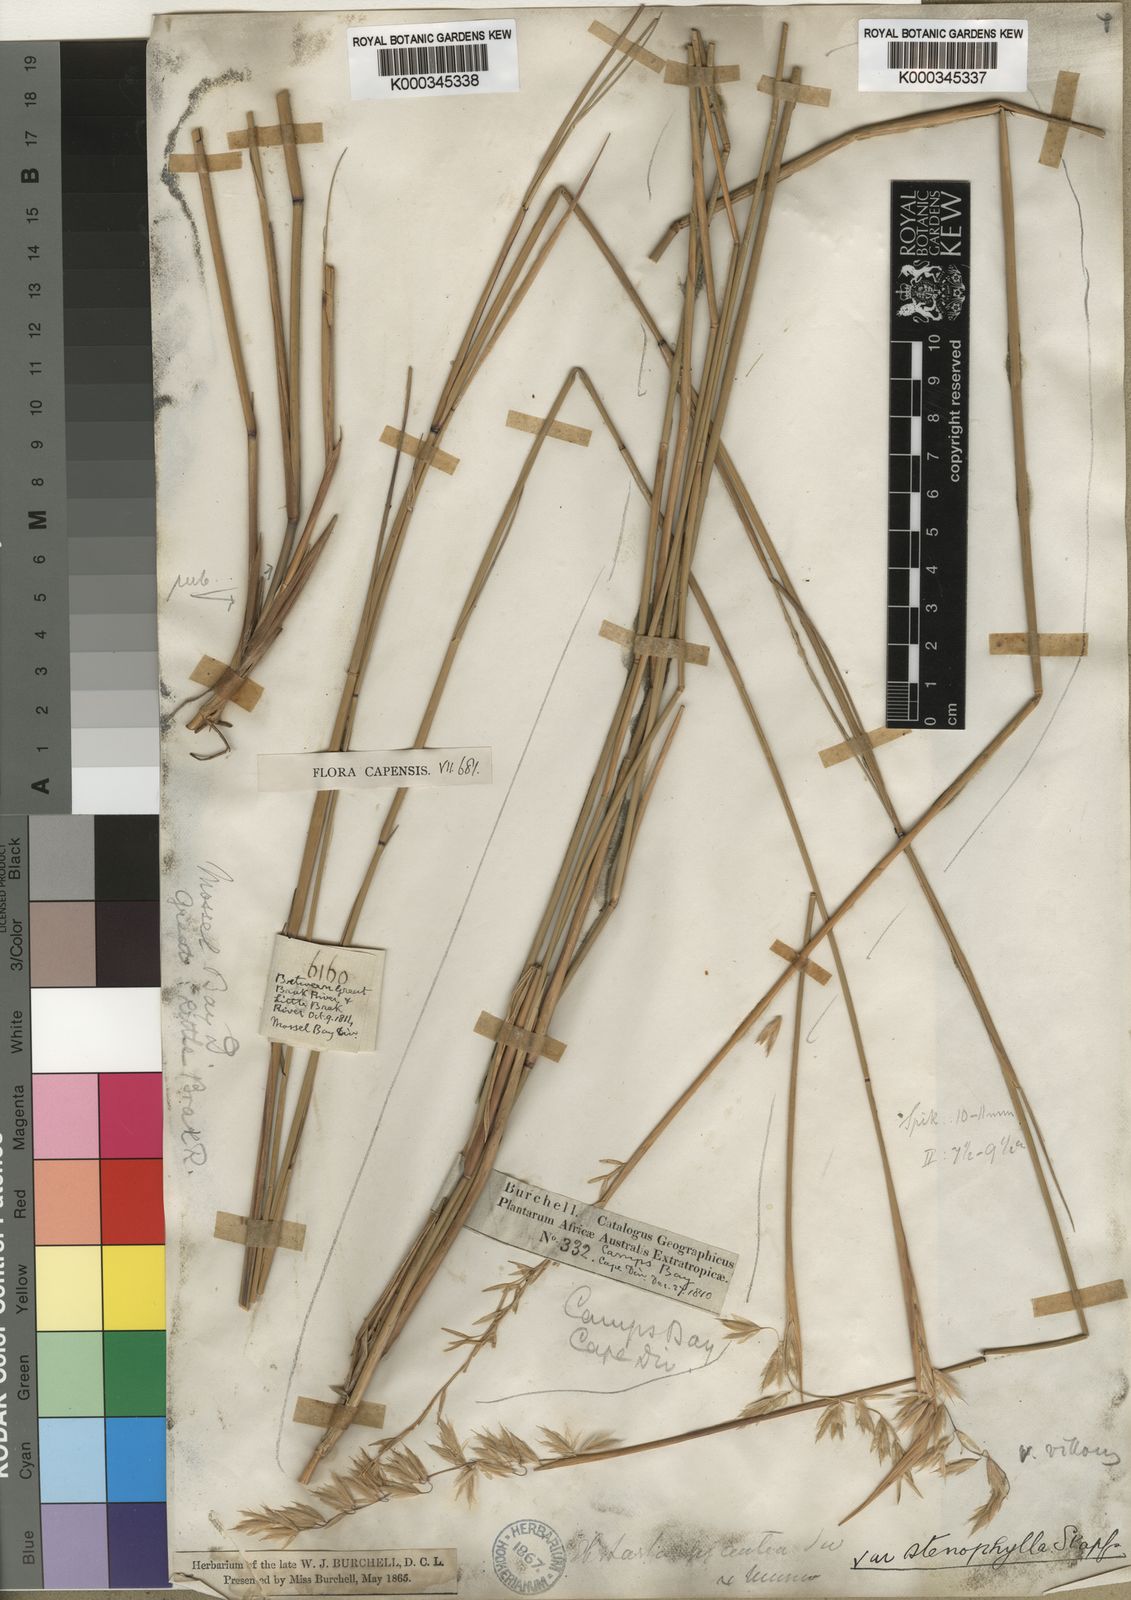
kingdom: Plantae
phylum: Tracheophyta
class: Liliopsida
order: Poales
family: Poaceae
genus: Ehrharta
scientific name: Ehrharta thunbergii
